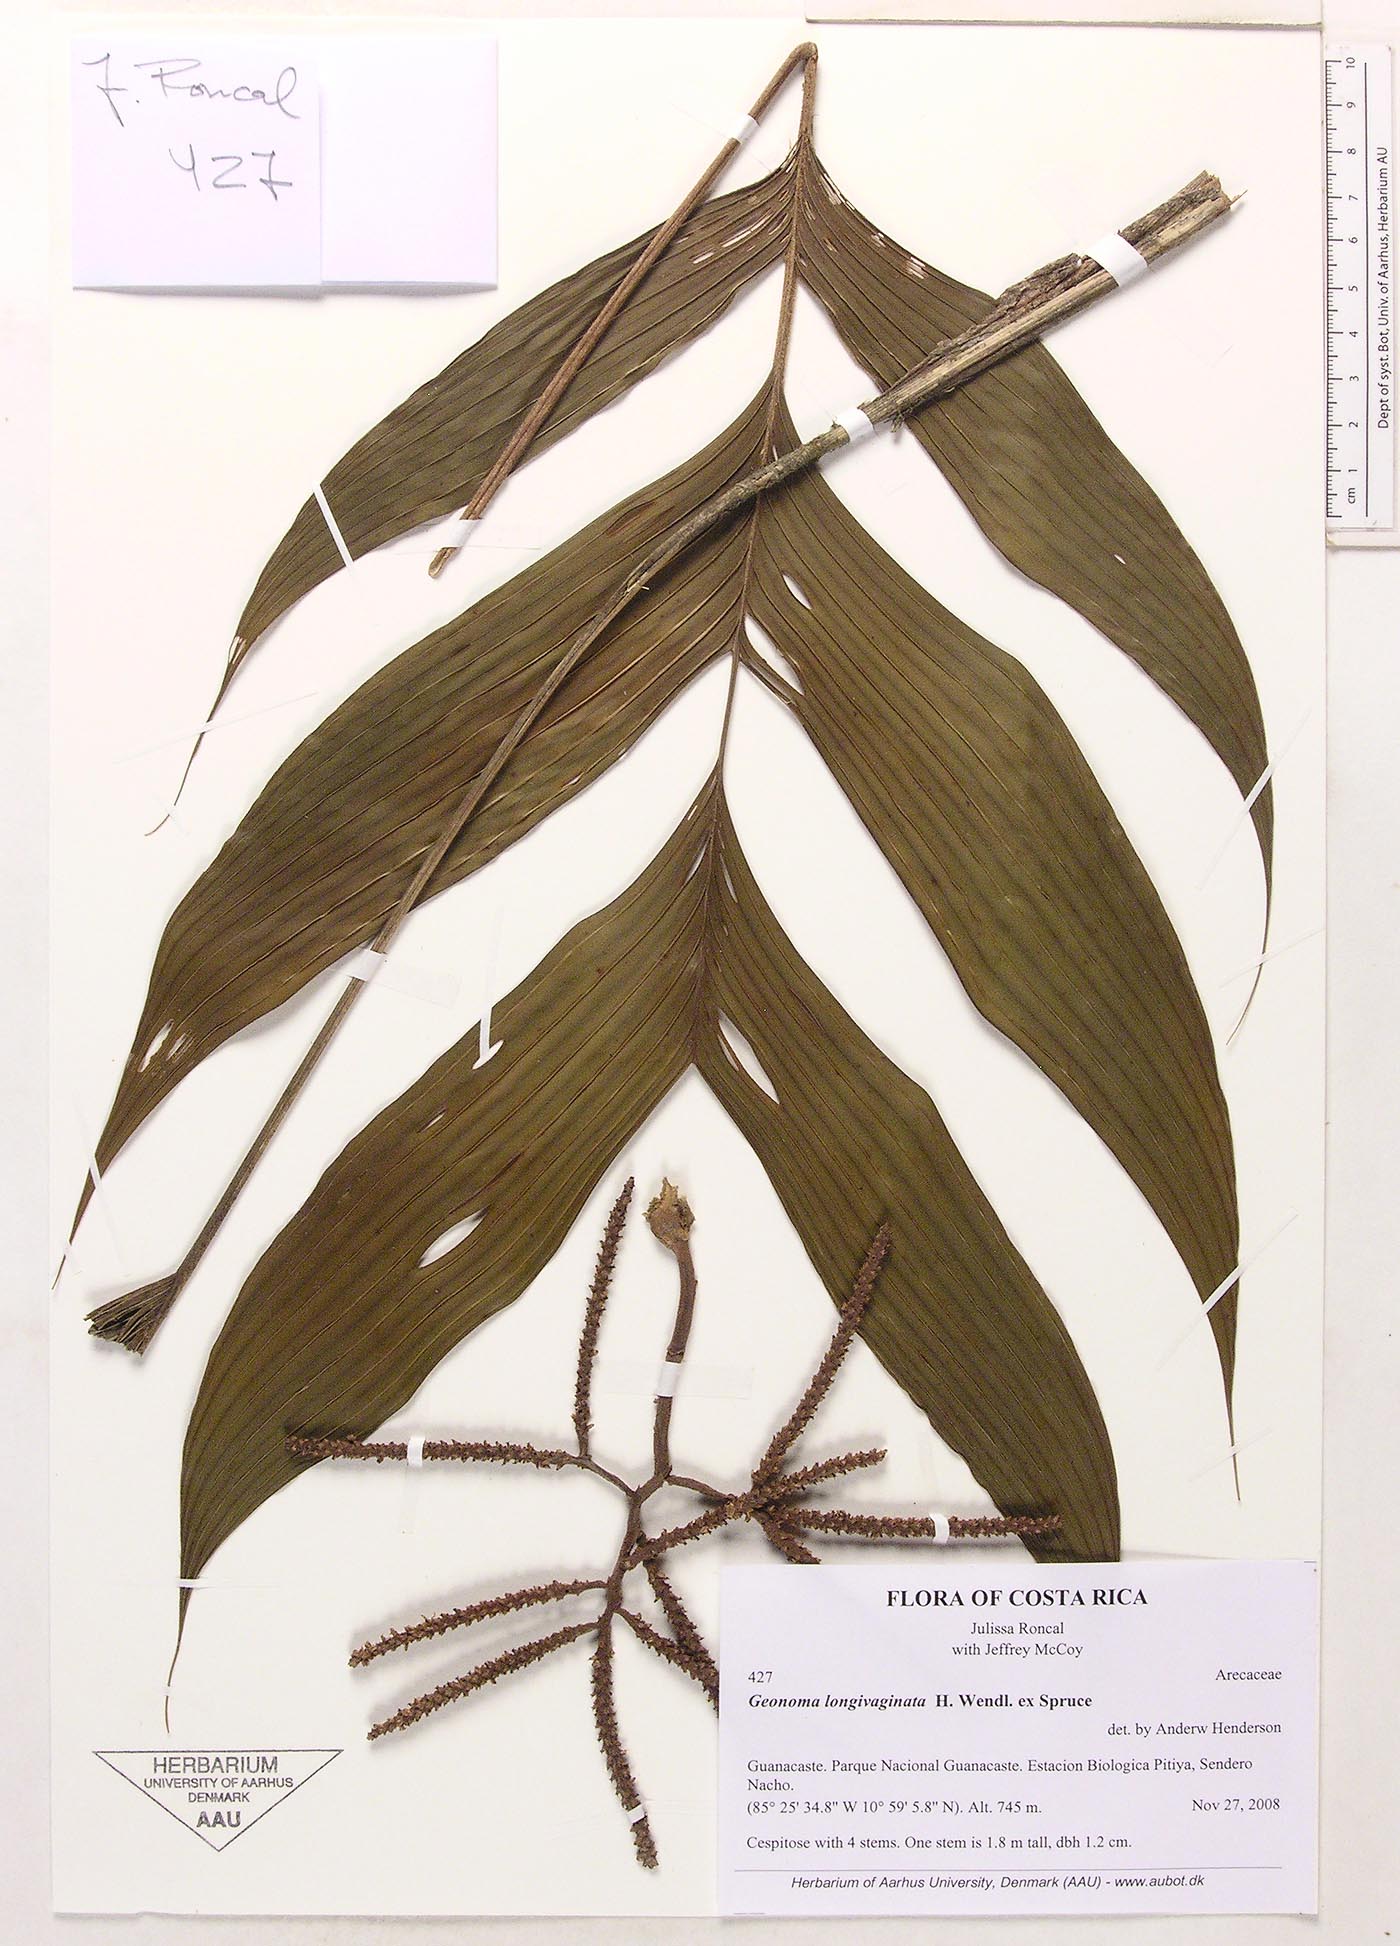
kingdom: Plantae
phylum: Tracheophyta
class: Liliopsida
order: Arecales
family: Arecaceae
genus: Geonoma
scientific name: Geonoma longivaginata
